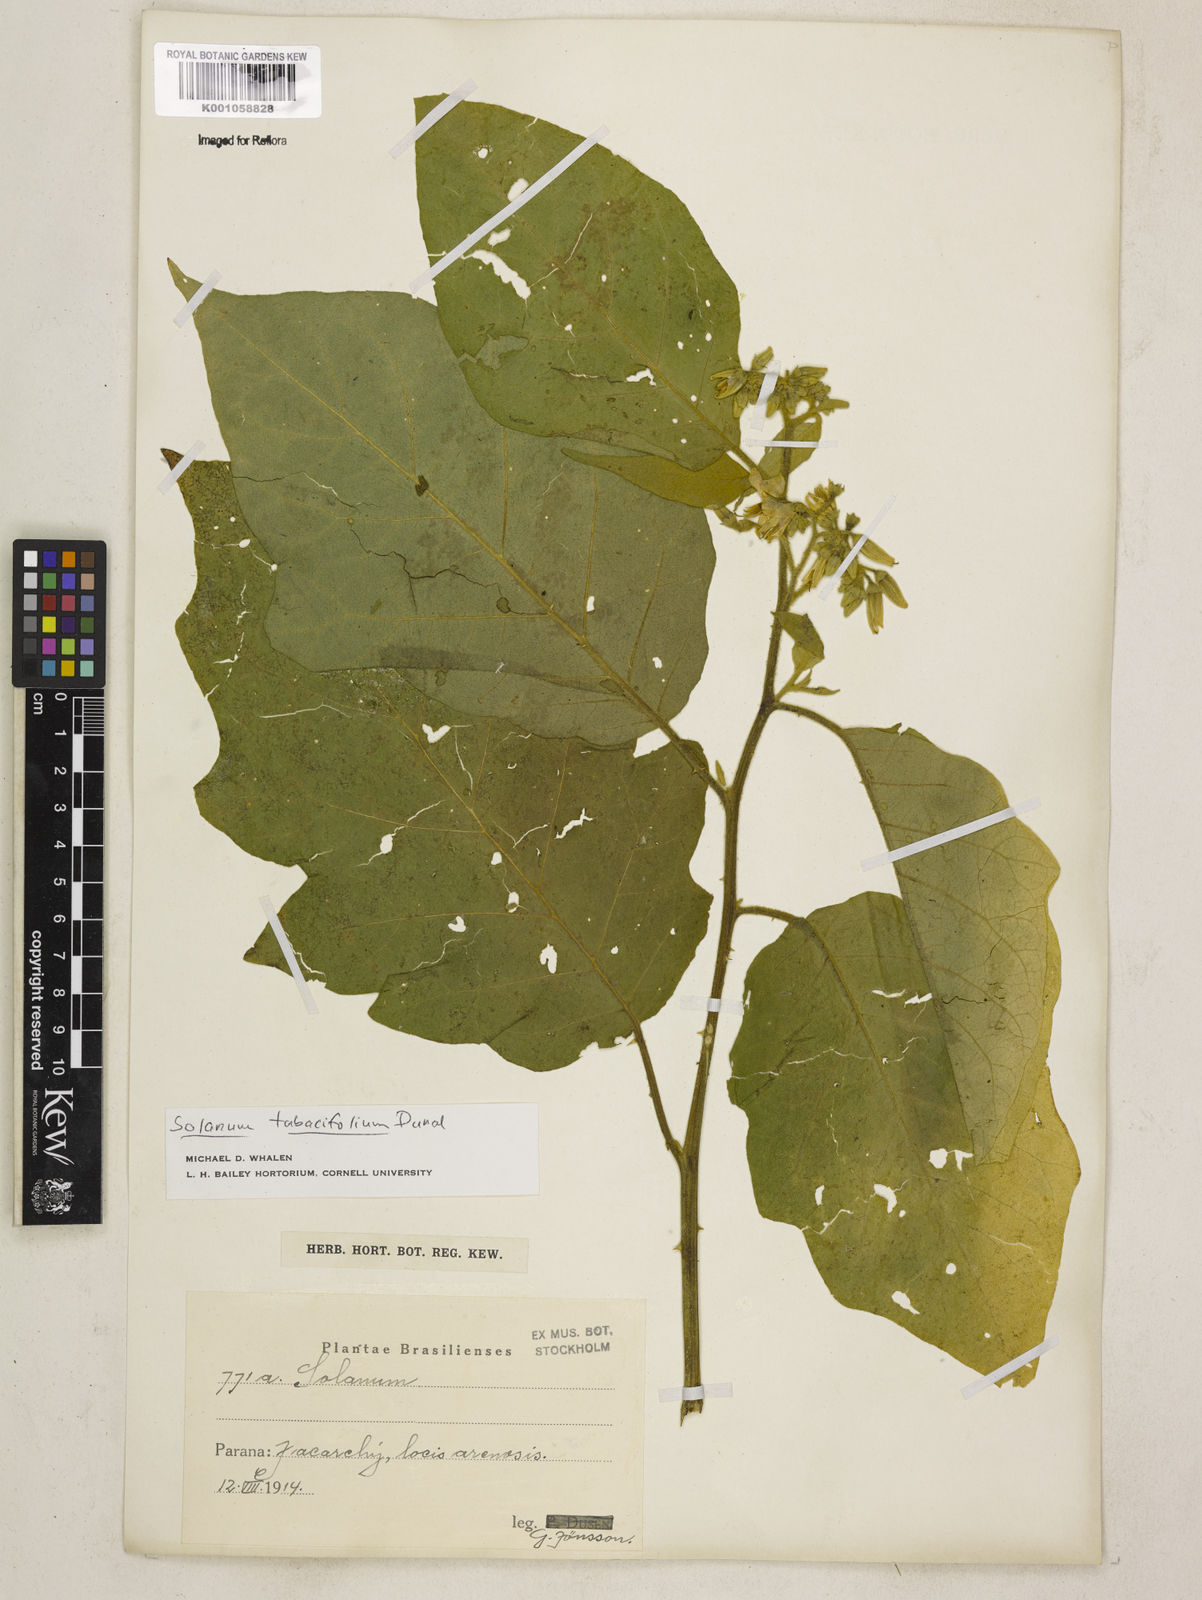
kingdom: Plantae
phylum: Tracheophyta
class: Magnoliopsida
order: Solanales
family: Solanaceae
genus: Solanum
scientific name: Solanum scuticum
